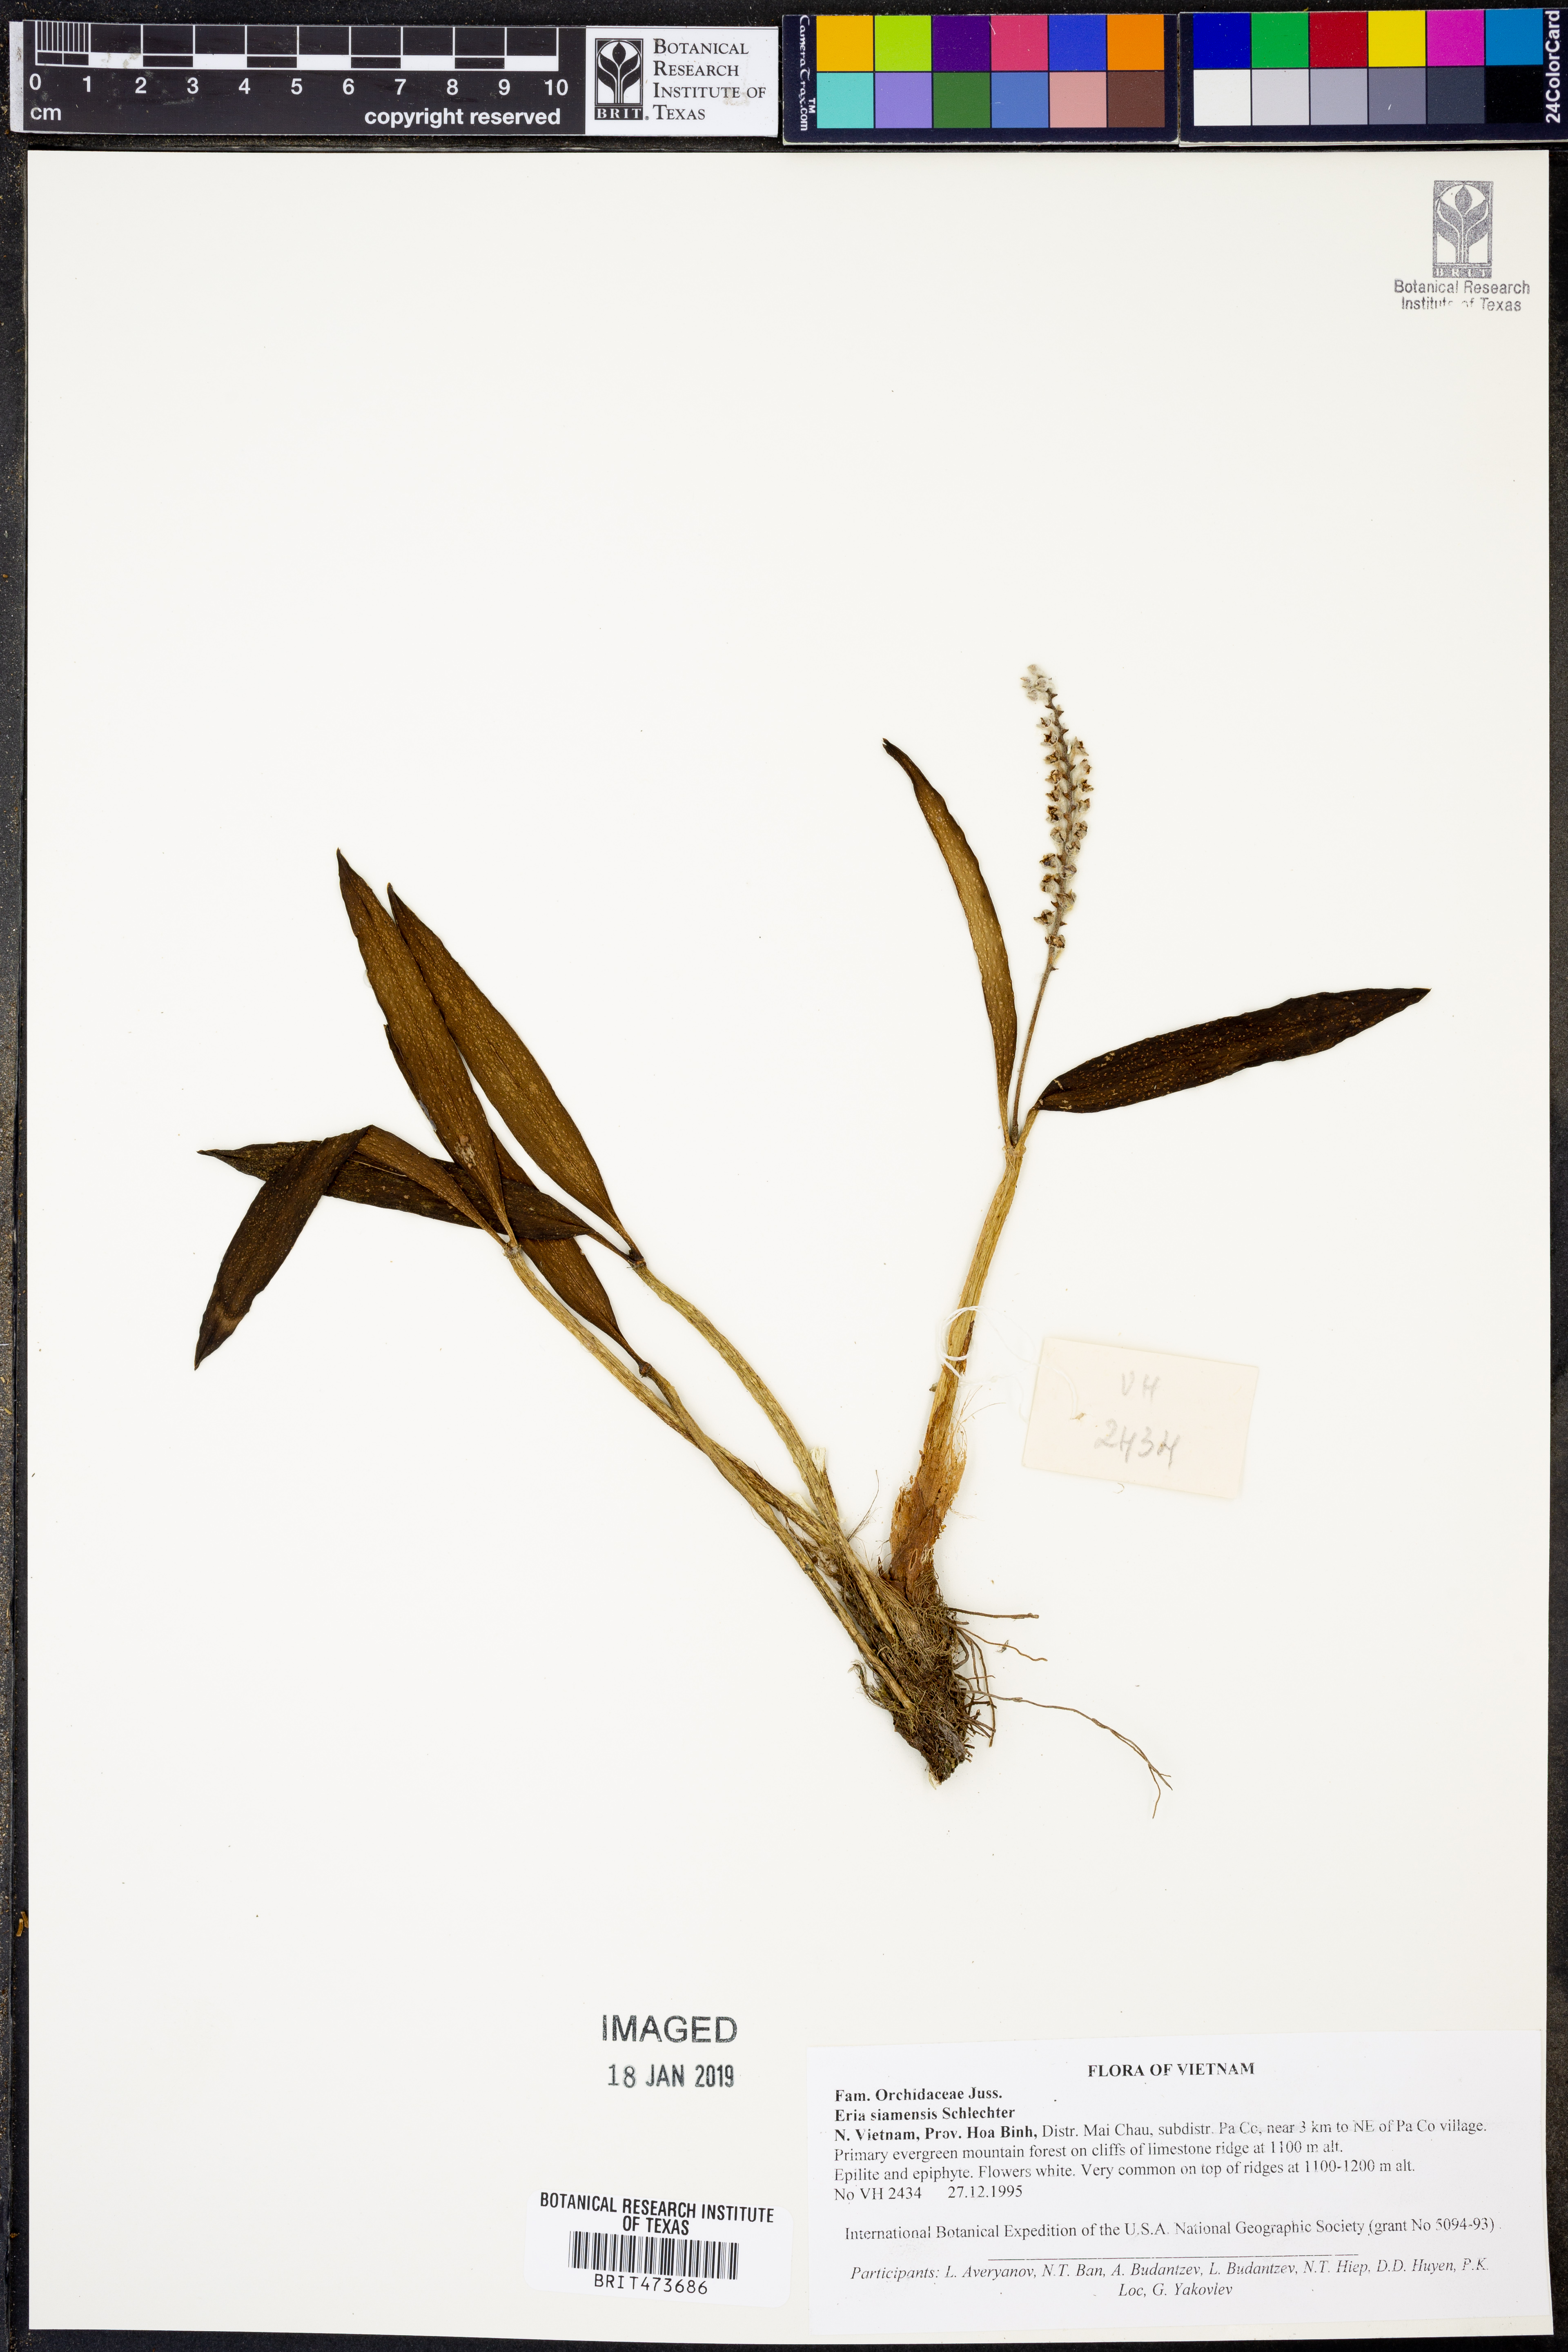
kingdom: Plantae
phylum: Tracheophyta
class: Liliopsida
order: Asparagales
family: Orchidaceae
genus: Cryptochilus
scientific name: Cryptochilus siamensis
